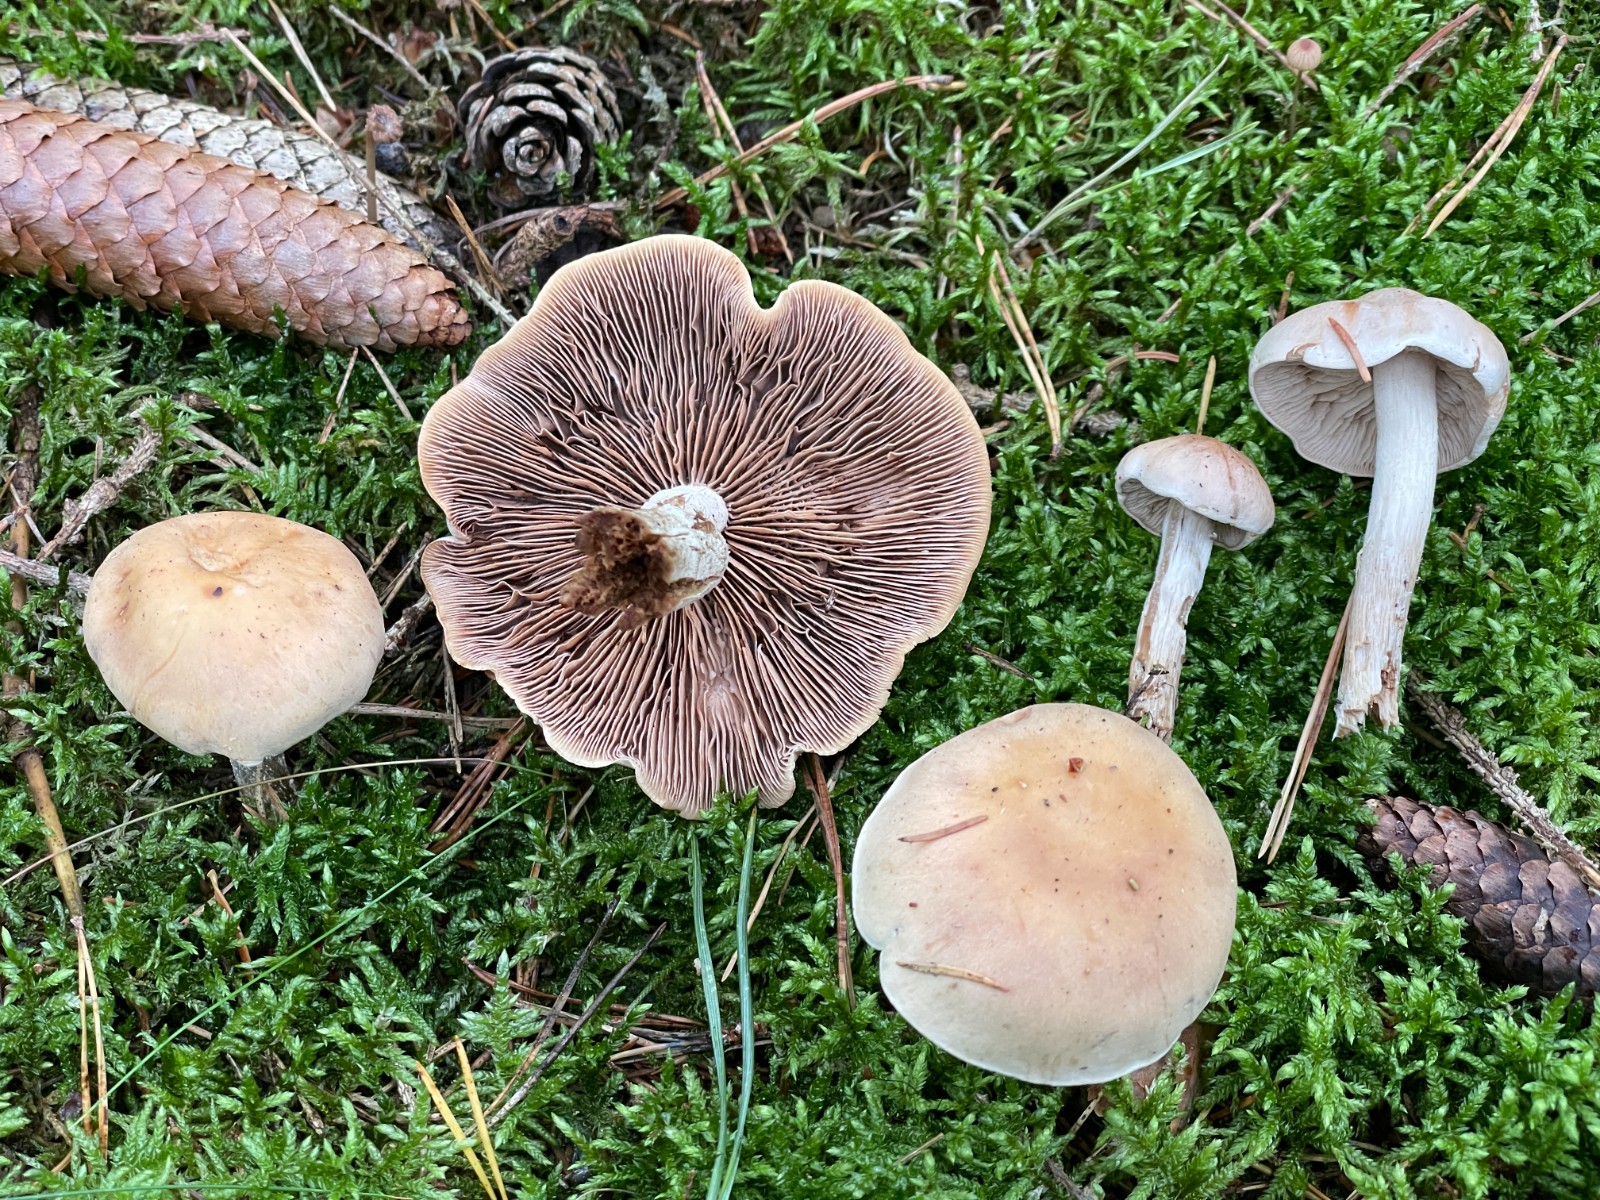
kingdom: Fungi
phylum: Basidiomycota
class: Agaricomycetes
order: Agaricales
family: Hymenogastraceae
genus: Hebeloma
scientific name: Hebeloma
